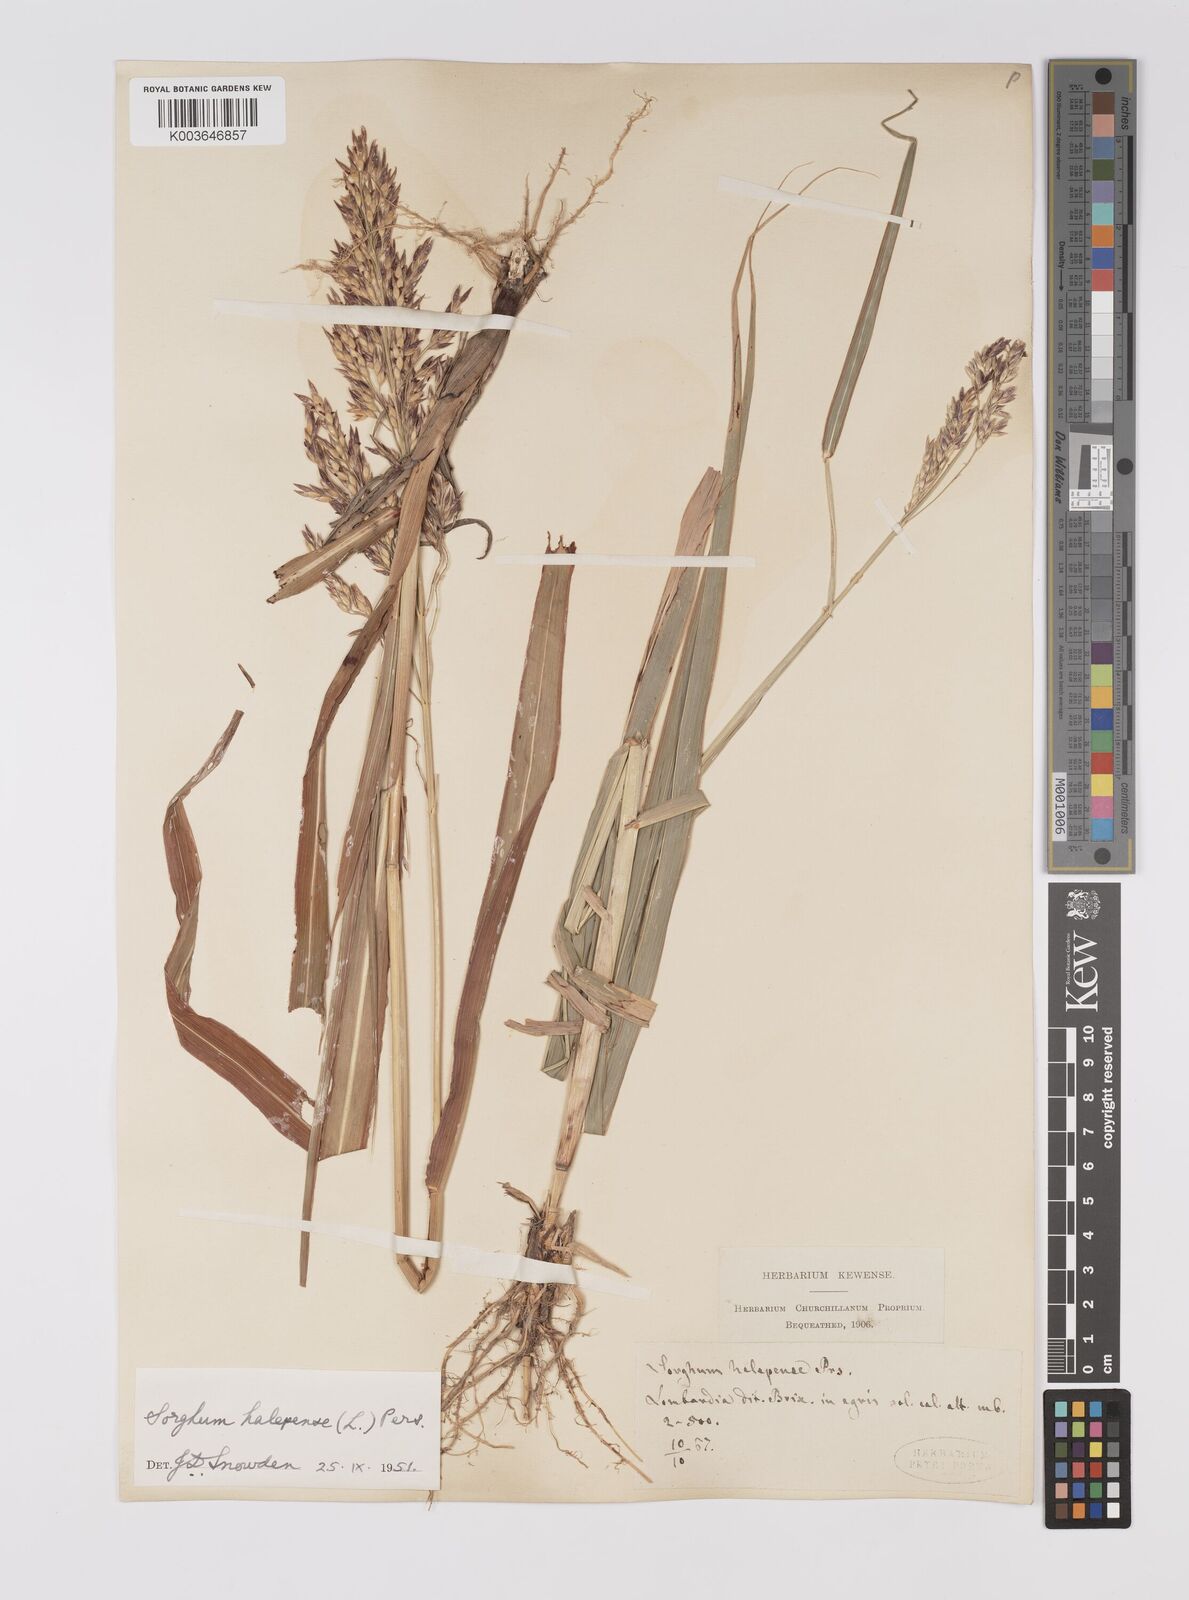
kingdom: Plantae
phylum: Tracheophyta
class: Liliopsida
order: Poales
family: Poaceae
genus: Sorghum
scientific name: Sorghum halepense
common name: Johnson-grass
